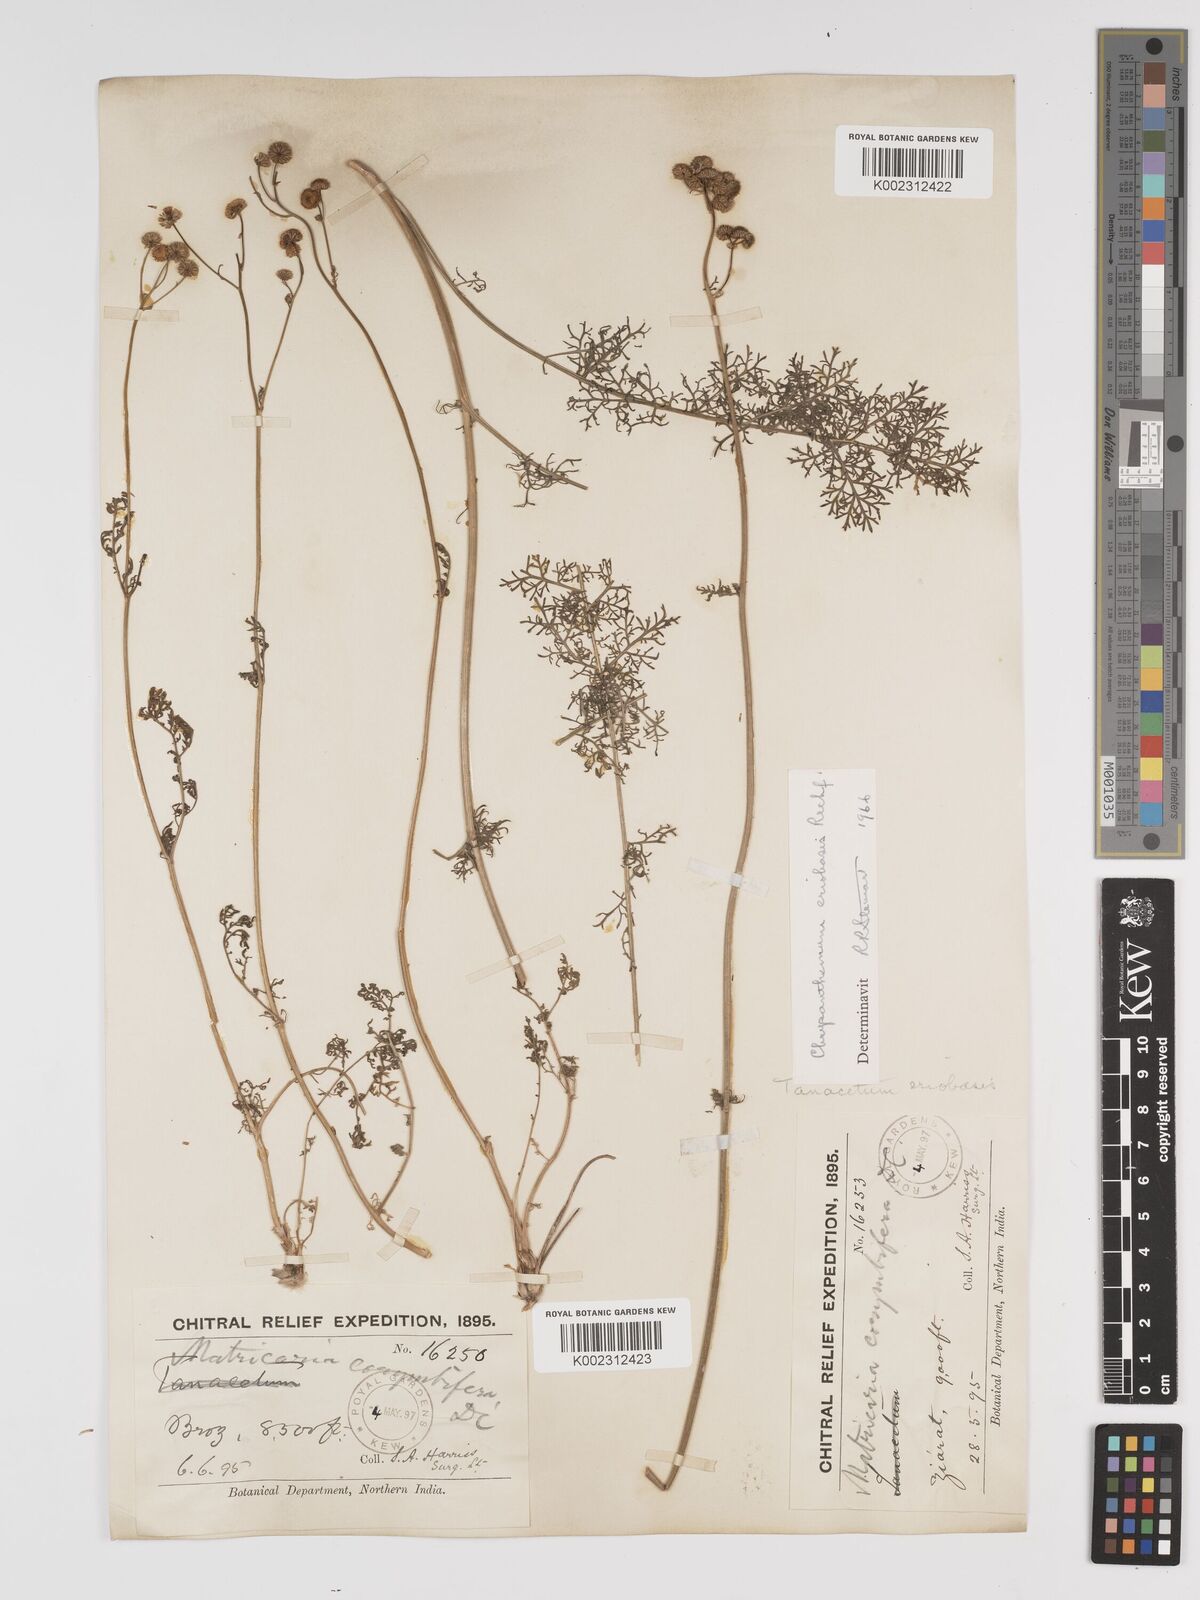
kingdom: Plantae
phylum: Tracheophyta
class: Magnoliopsida
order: Asterales
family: Asteraceae
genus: Tanacetum
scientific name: Tanacetum
